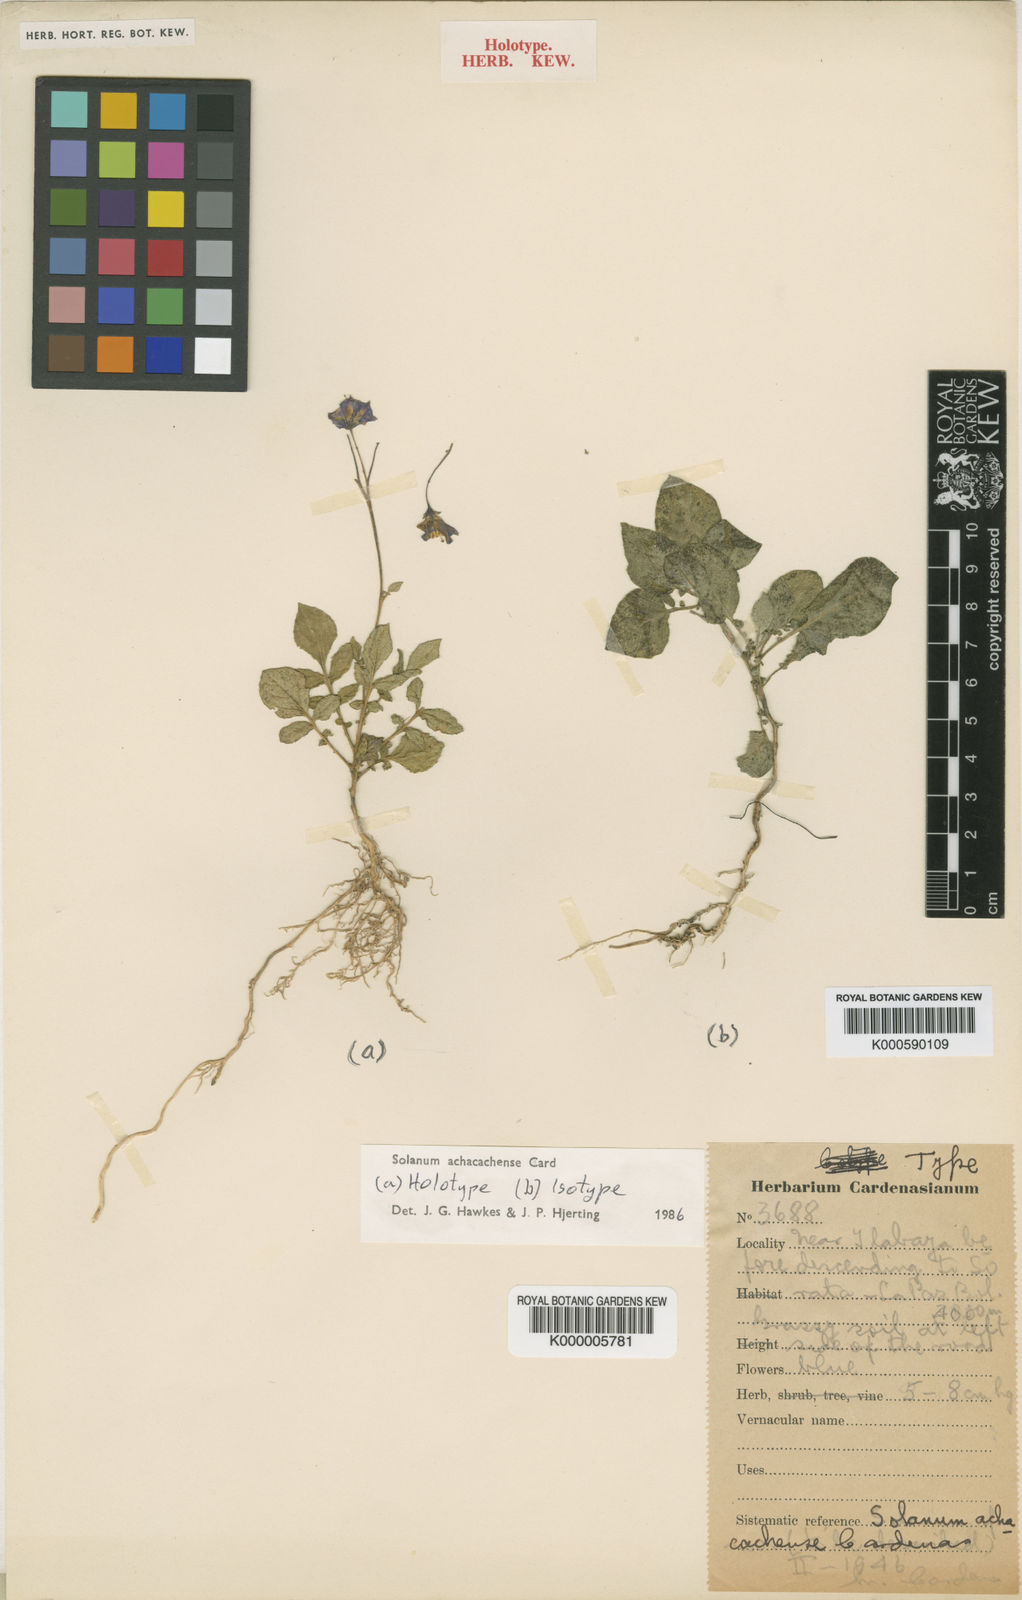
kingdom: Plantae
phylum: Tracheophyta
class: Magnoliopsida
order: Solanales
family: Solanaceae
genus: Solanum
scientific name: Solanum
